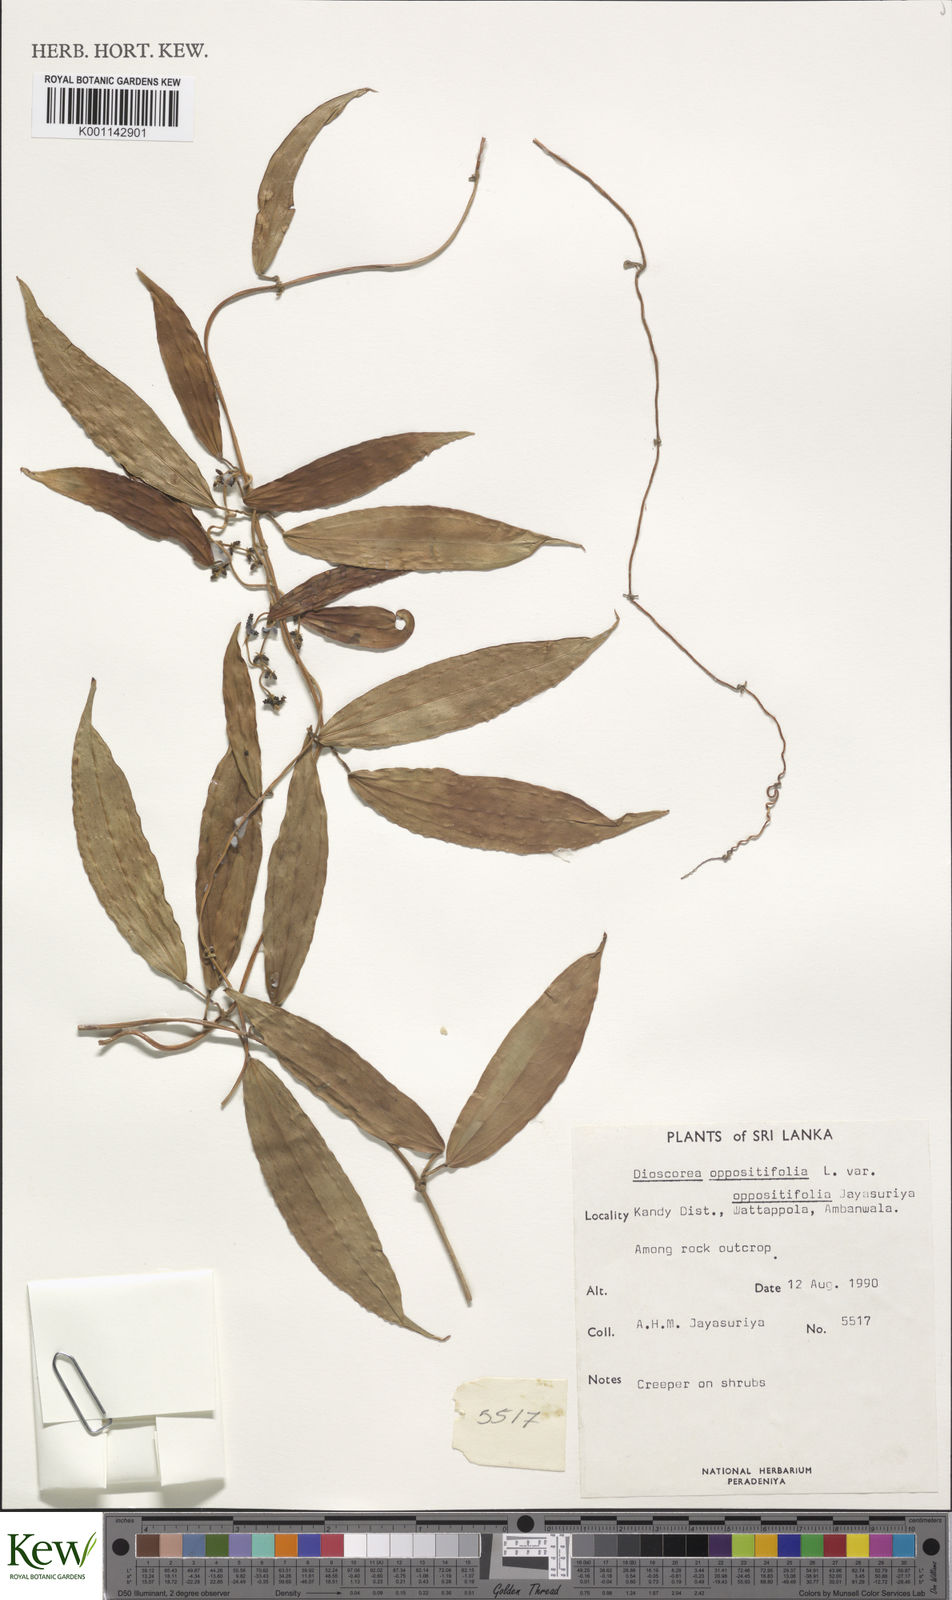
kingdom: Plantae
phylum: Tracheophyta
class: Liliopsida
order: Dioscoreales
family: Dioscoreaceae
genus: Dioscorea
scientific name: Dioscorea oppositifolia
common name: Chinese yam
